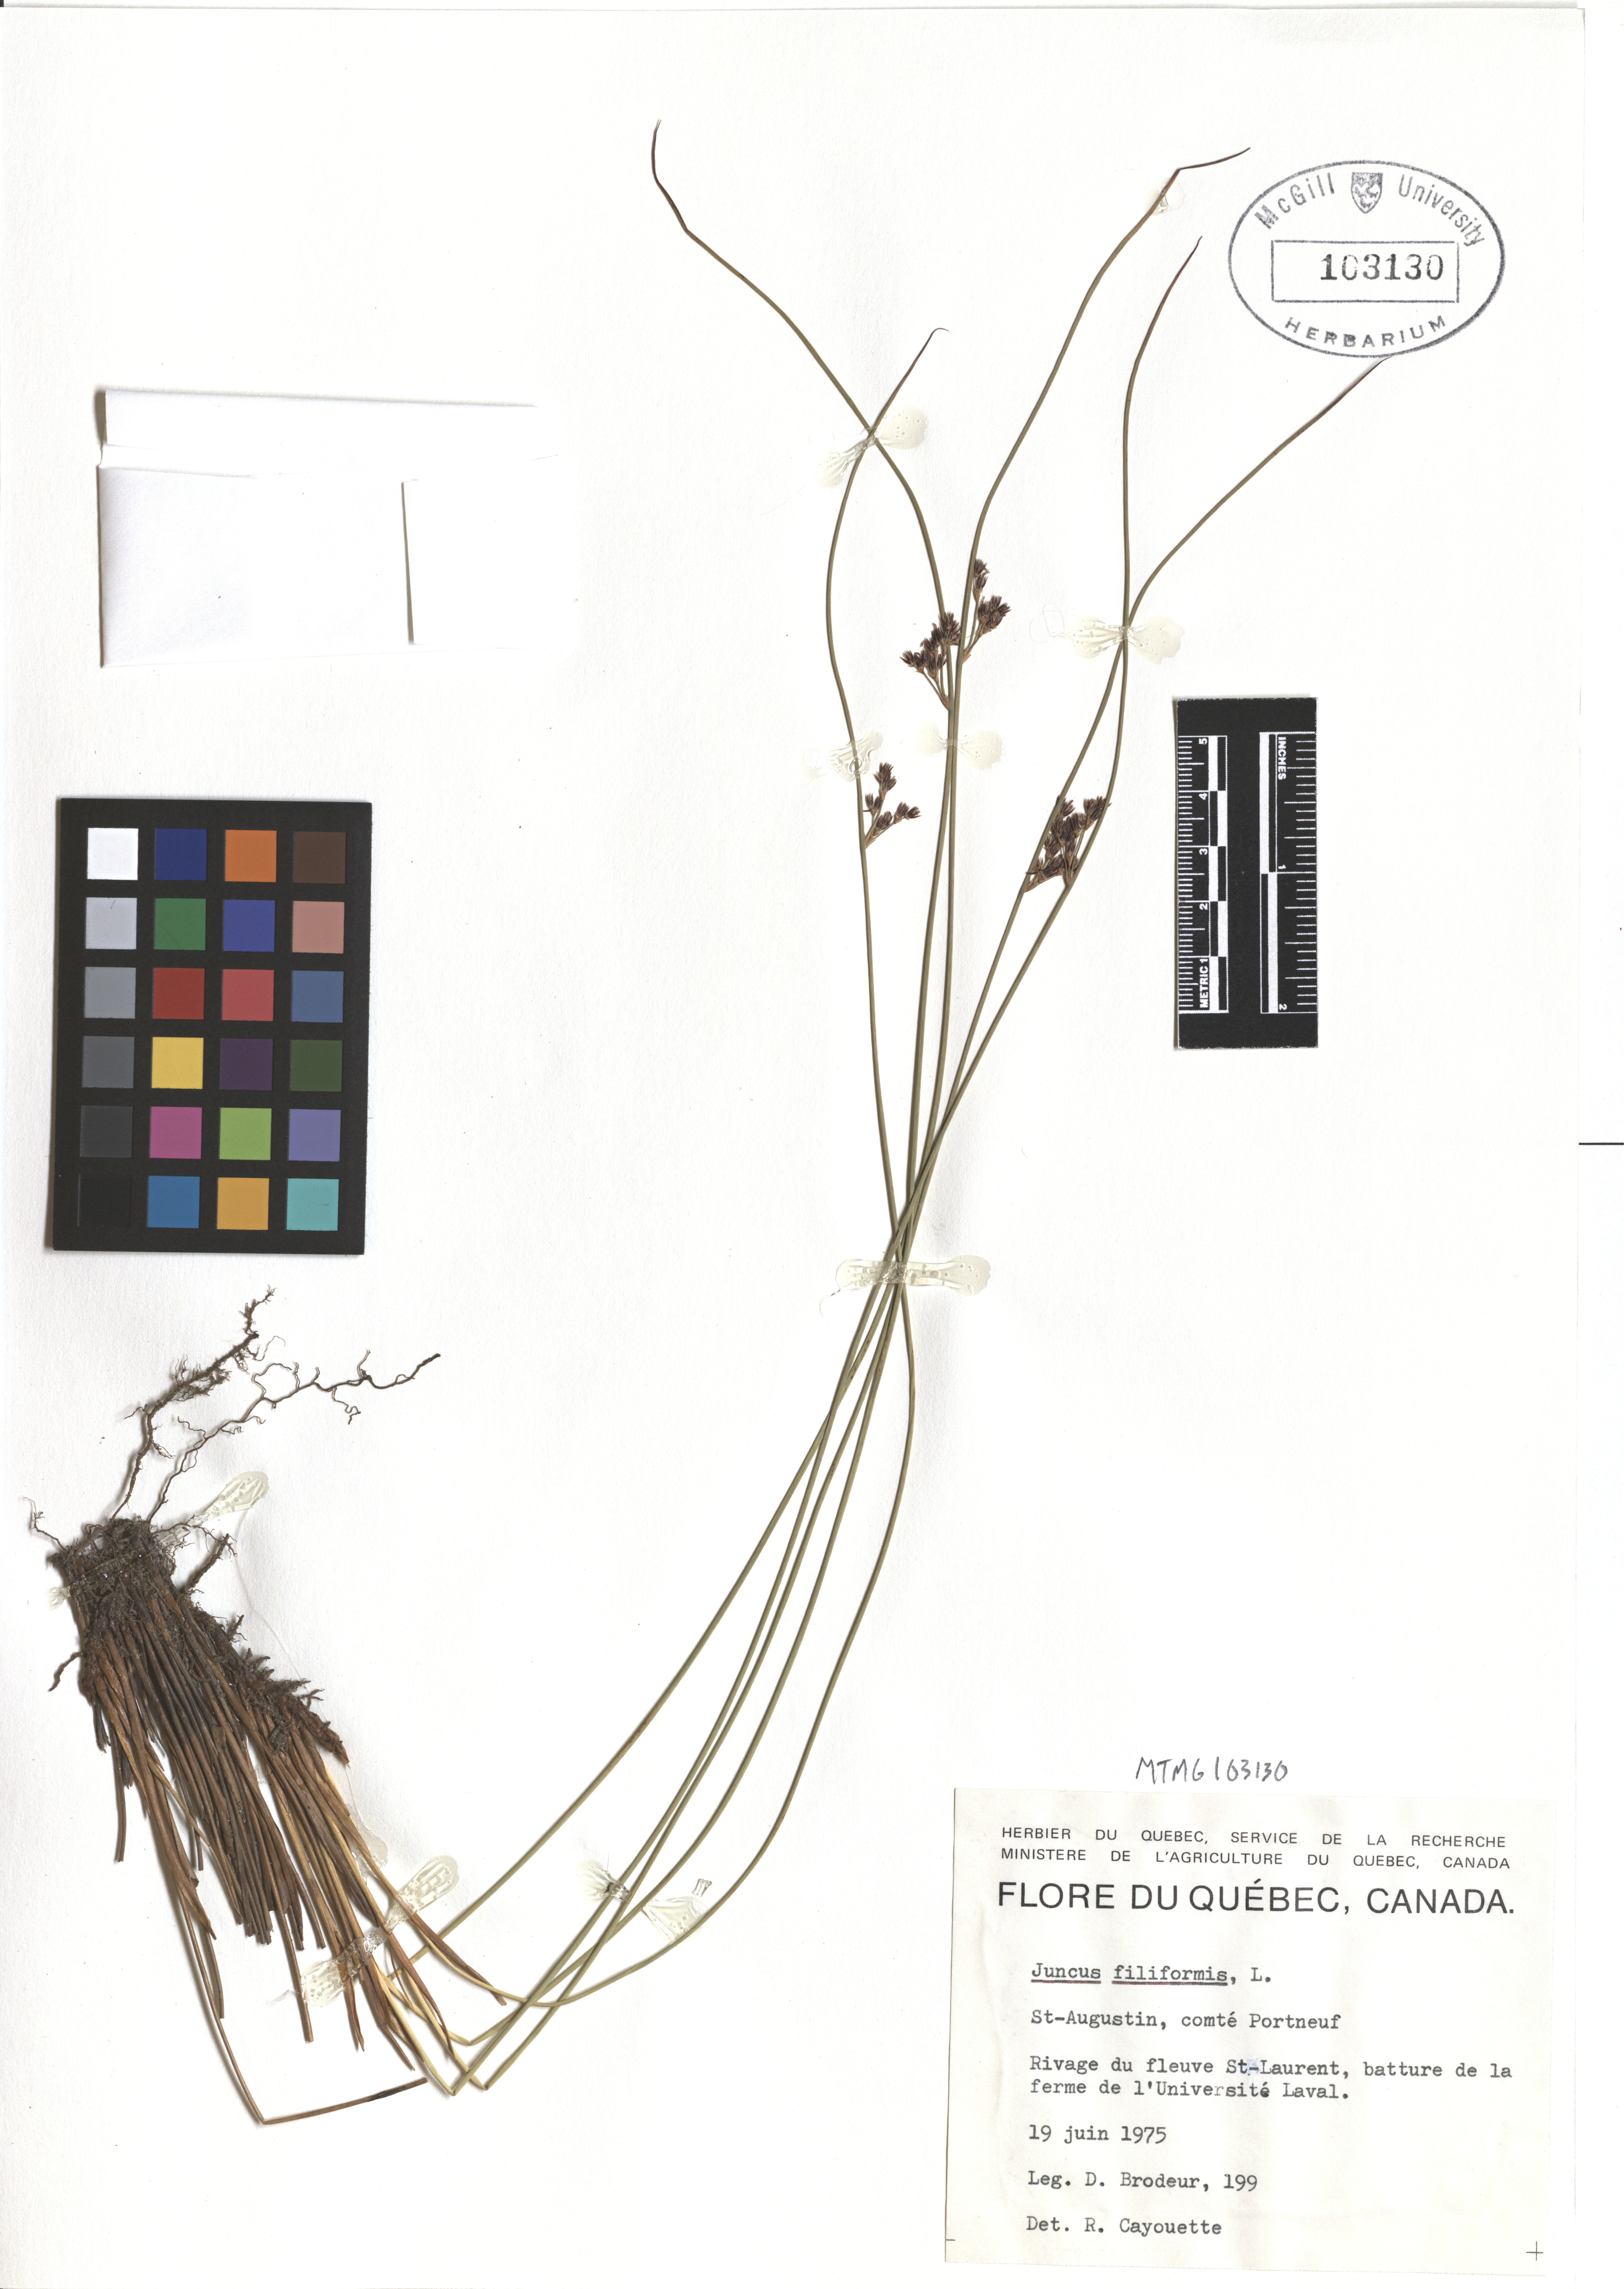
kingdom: Plantae
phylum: Tracheophyta
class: Liliopsida
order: Poales
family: Juncaceae
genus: Juncus
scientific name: Juncus filiformis
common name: Thread rush
